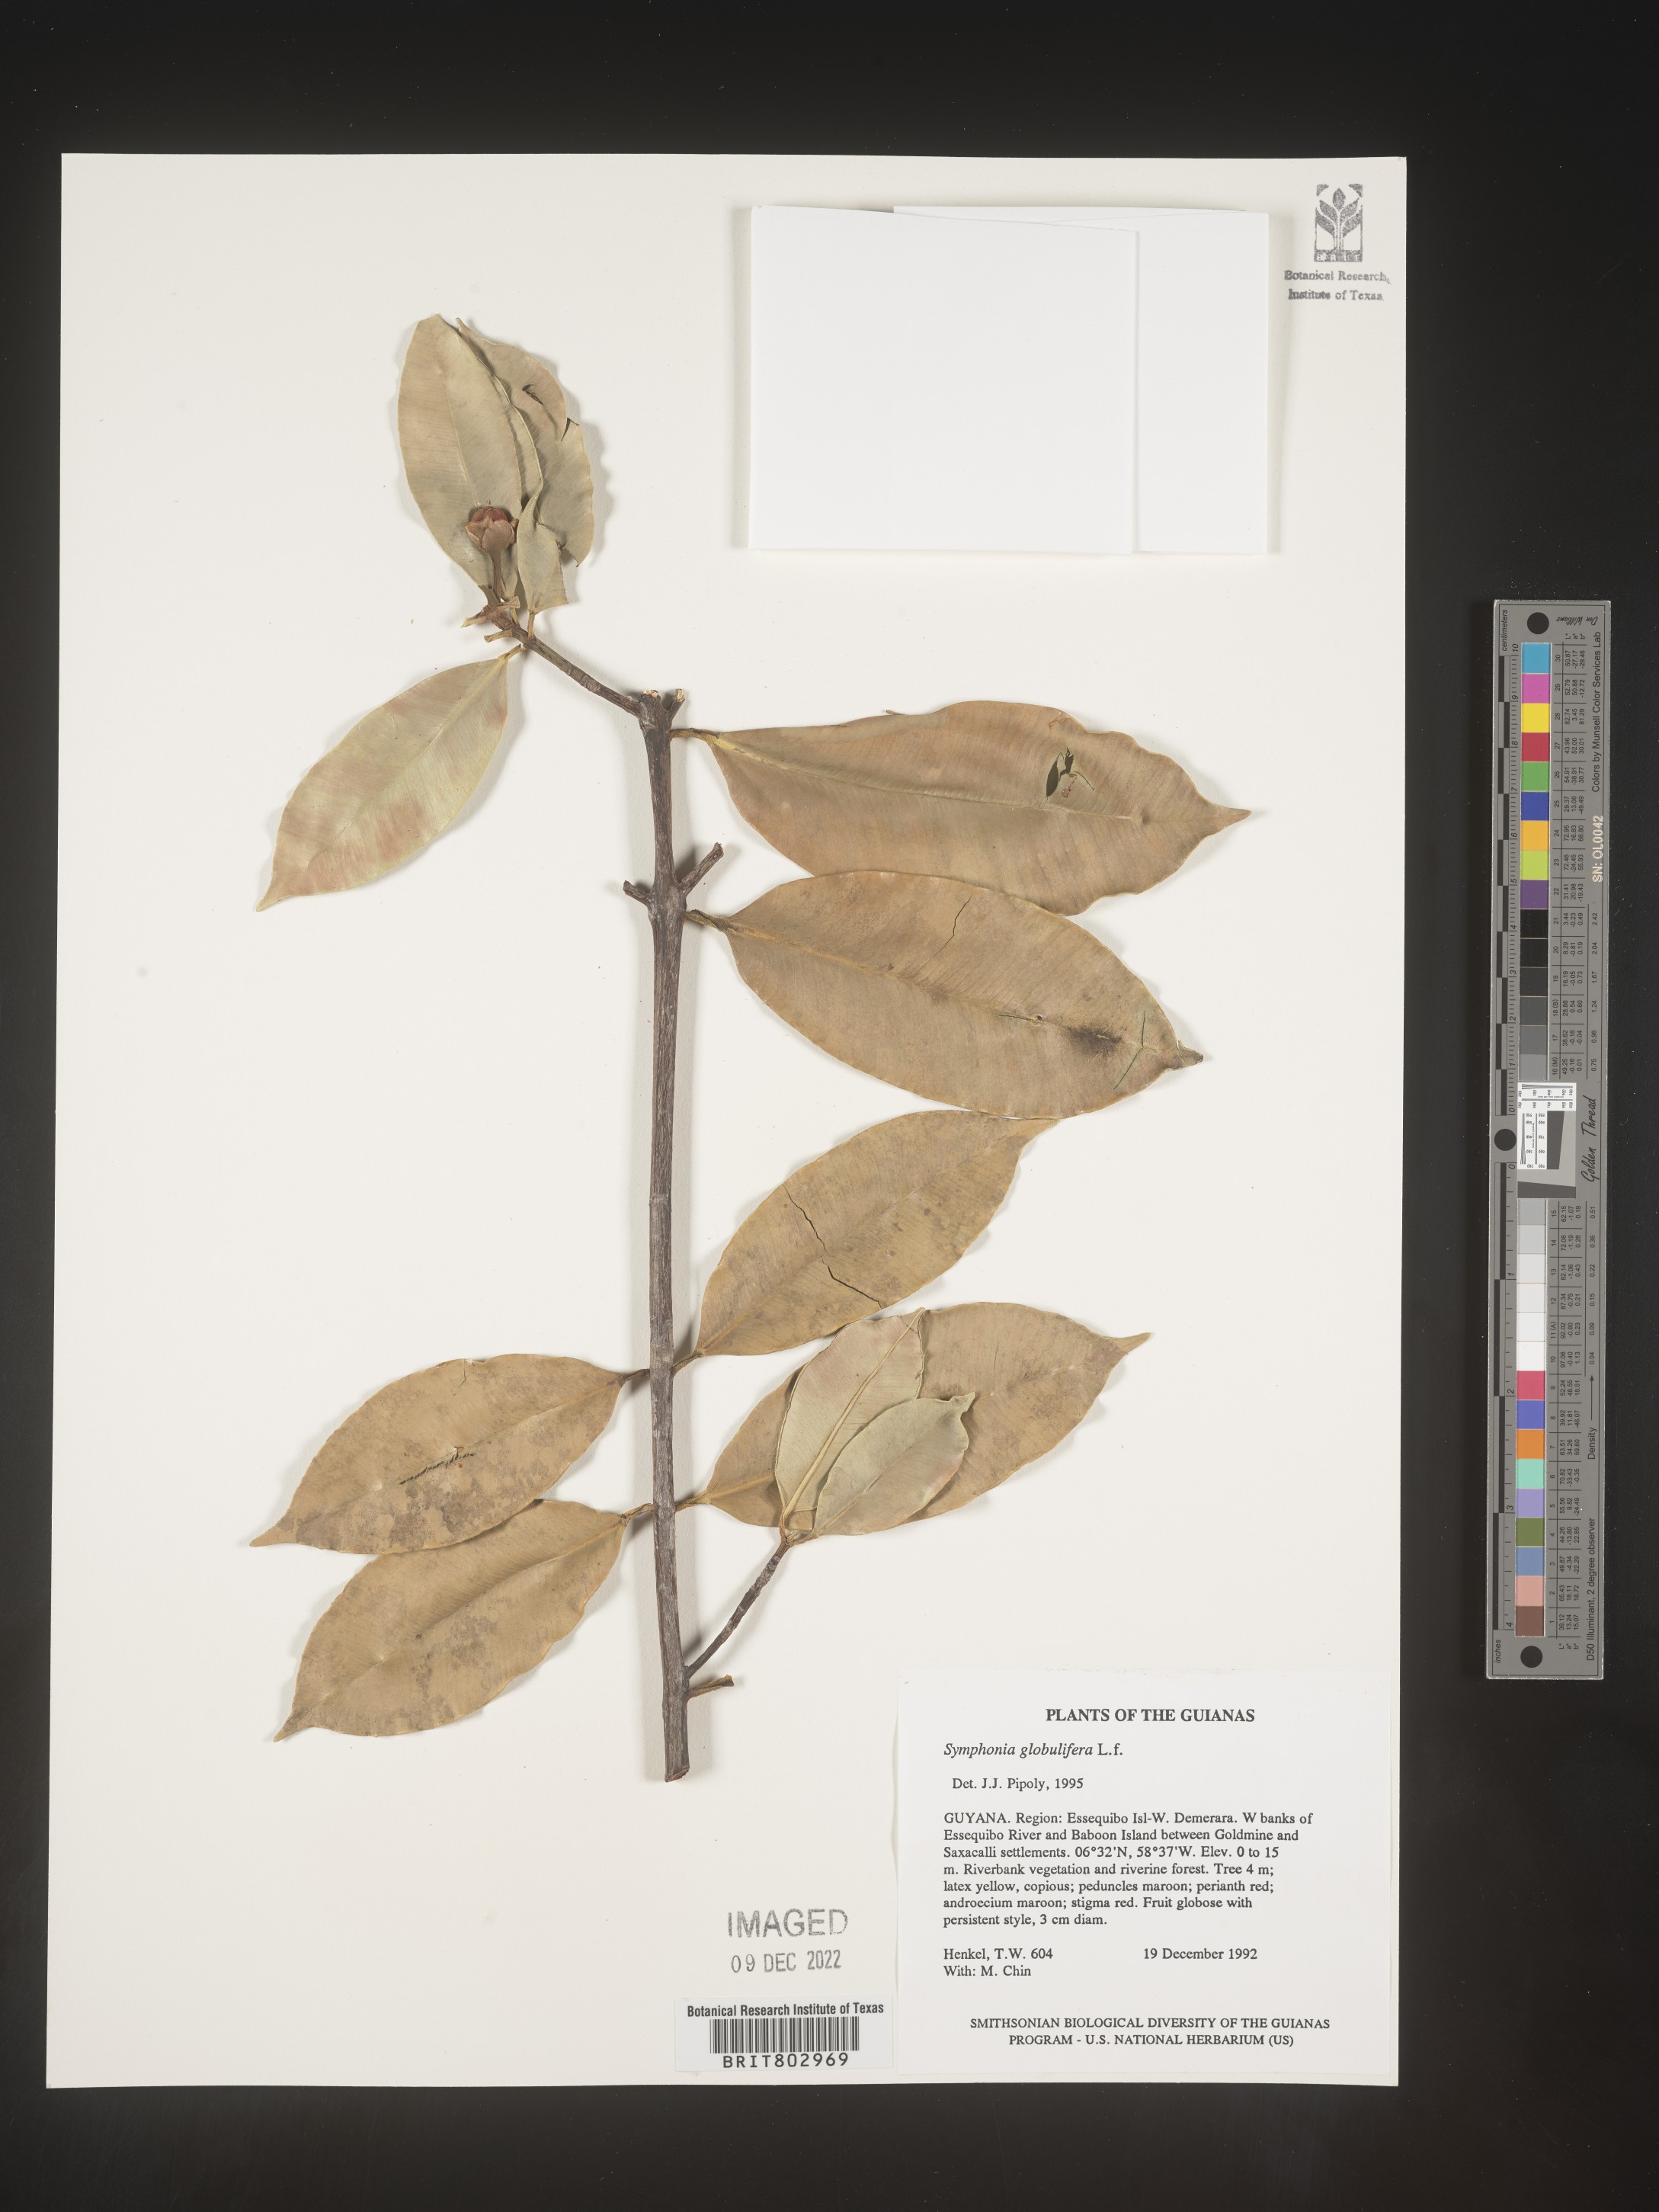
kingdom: Plantae
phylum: Tracheophyta
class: Magnoliopsida
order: Malpighiales
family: Clusiaceae
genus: Symphonia
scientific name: Symphonia
